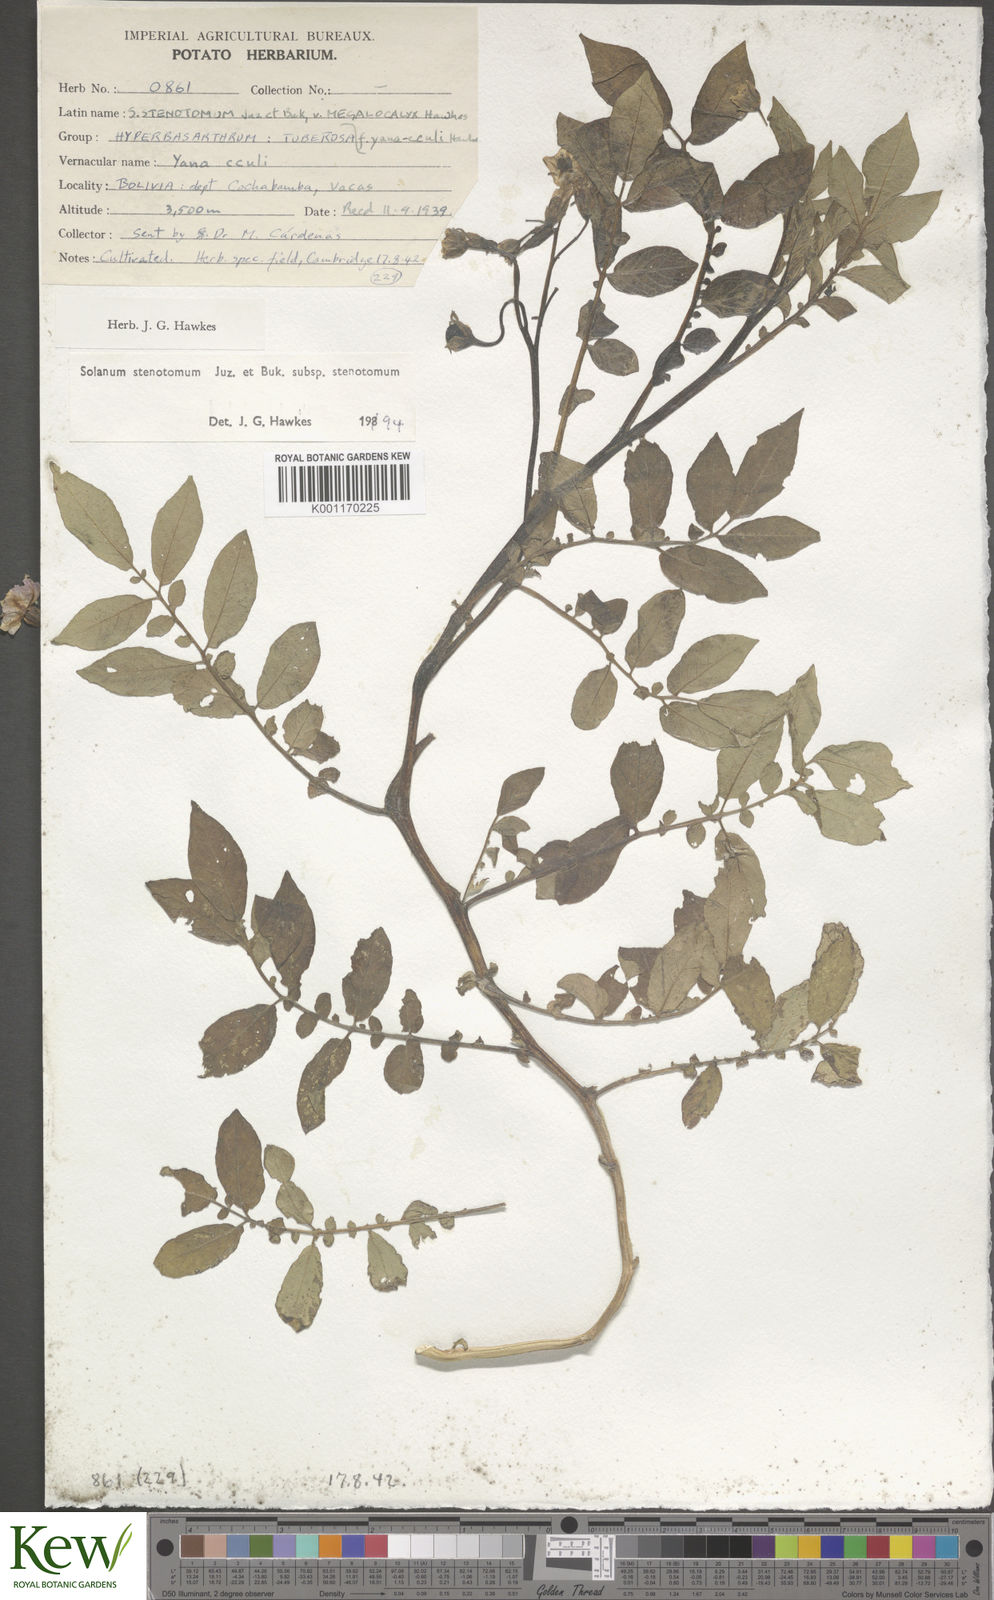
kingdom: Plantae
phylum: Tracheophyta
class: Magnoliopsida
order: Solanales
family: Solanaceae
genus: Solanum
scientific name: Solanum tuberosum
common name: Potato
